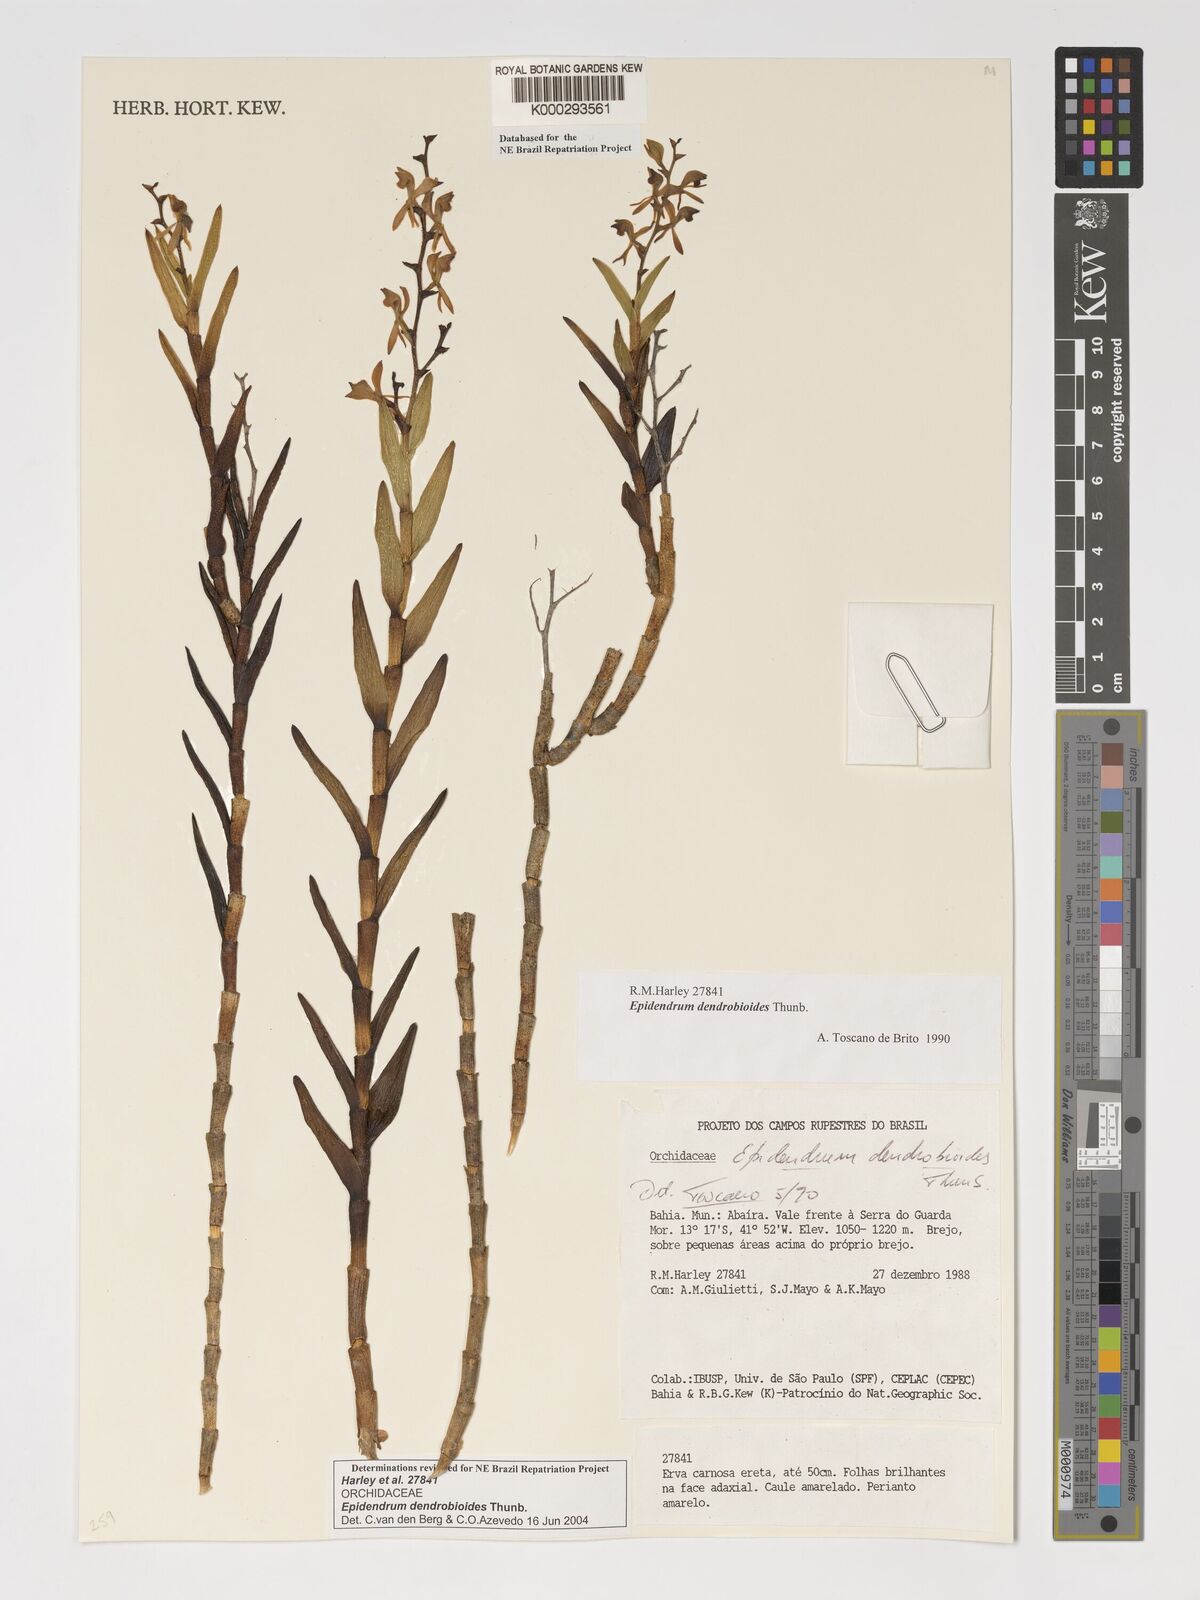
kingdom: Plantae
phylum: Tracheophyta
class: Liliopsida
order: Asparagales
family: Orchidaceae
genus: Epidendrum
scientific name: Epidendrum dendrobioides
